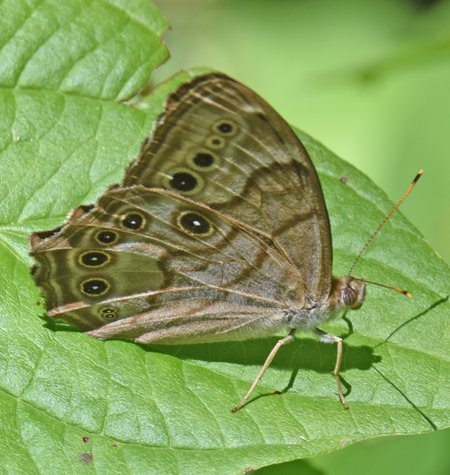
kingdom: Animalia
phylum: Arthropoda
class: Insecta
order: Lepidoptera
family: Nymphalidae
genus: Lethe
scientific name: Lethe anthedon
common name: Northern Pearly-Eye
